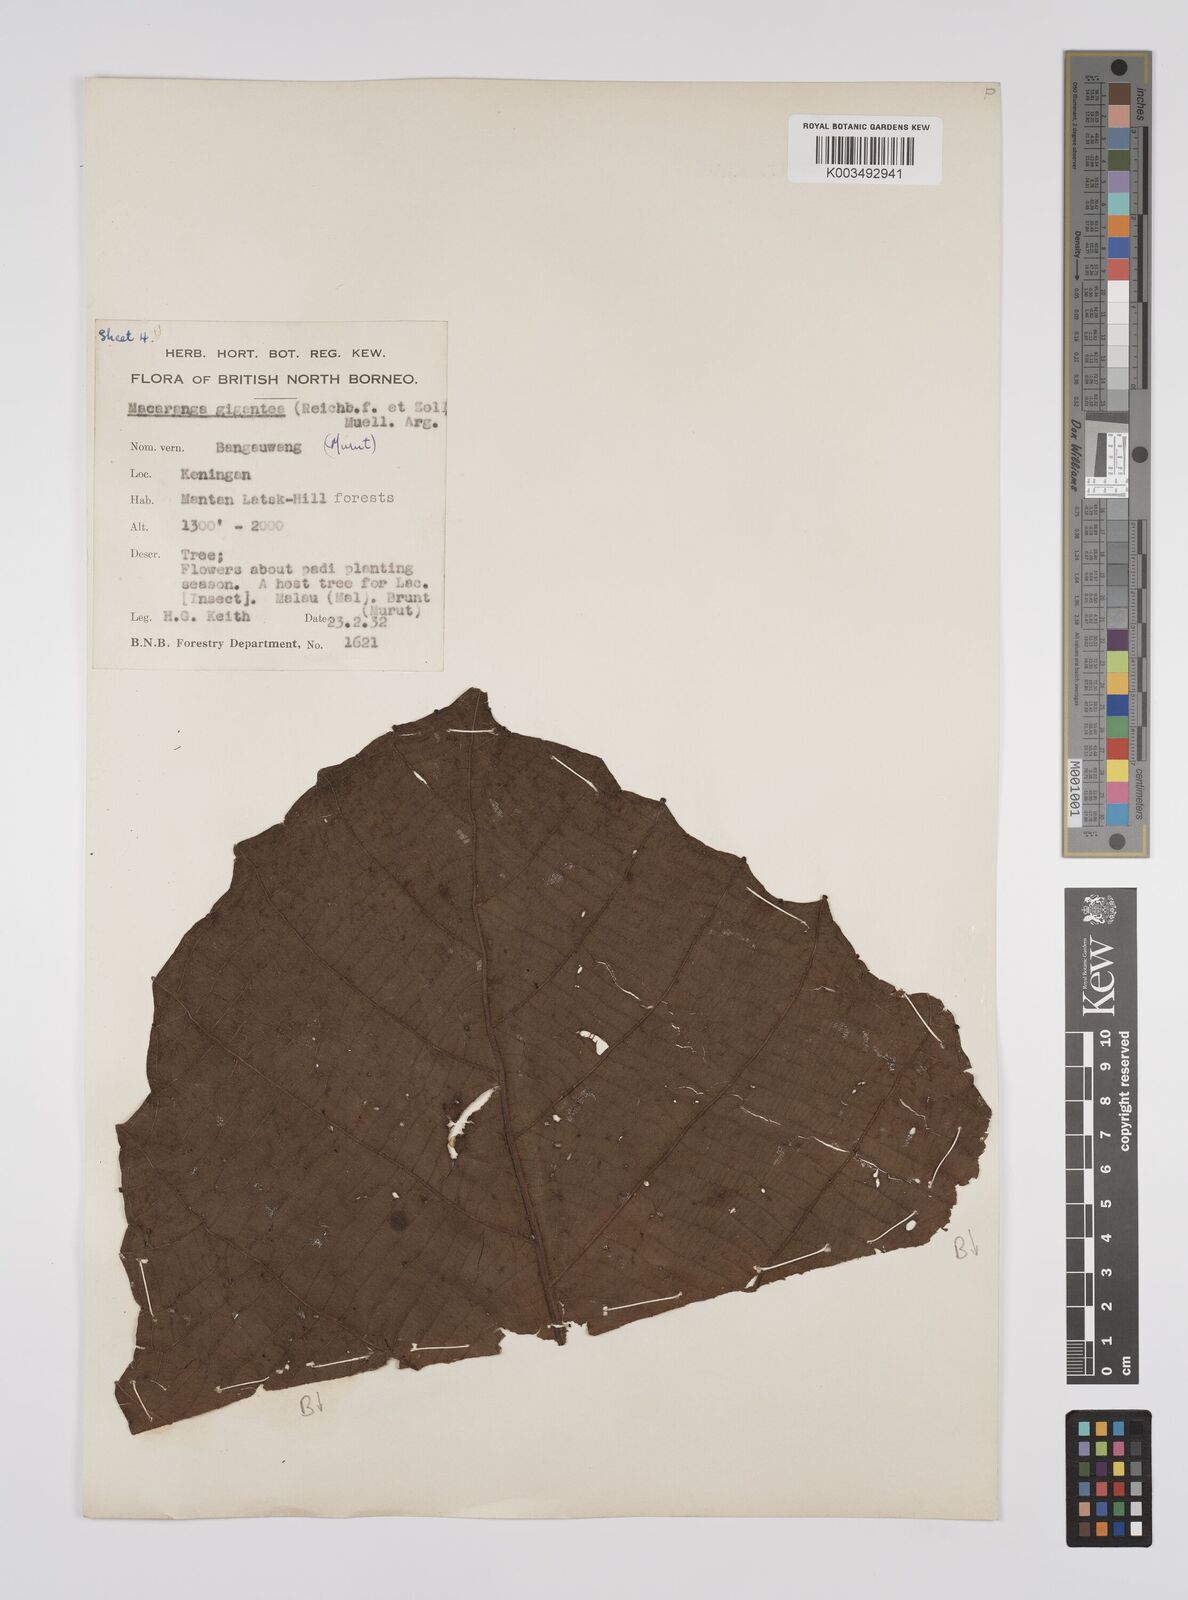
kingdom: Plantae
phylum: Tracheophyta
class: Magnoliopsida
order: Malpighiales
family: Euphorbiaceae
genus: Macaranga
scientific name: Macaranga gigantea
